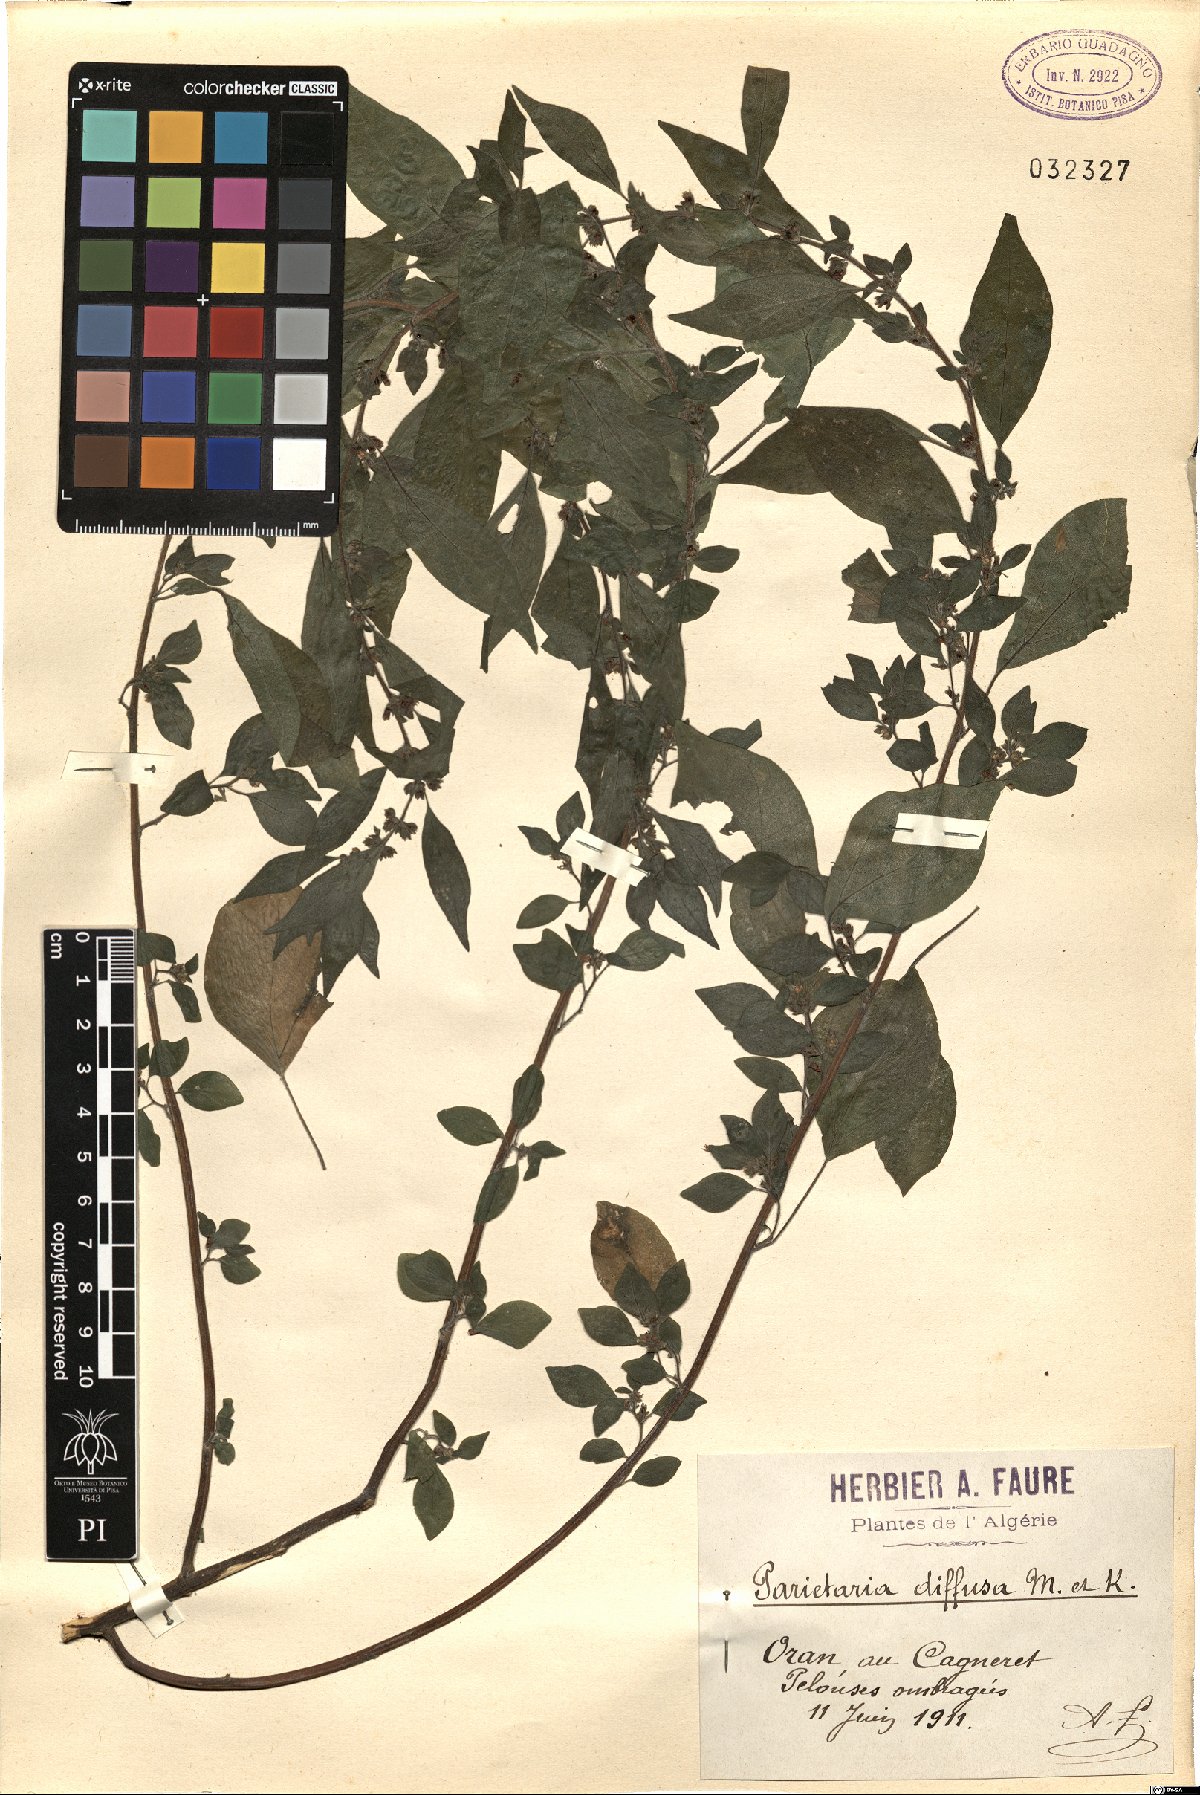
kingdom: Plantae
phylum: Tracheophyta
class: Magnoliopsida
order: Rosales
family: Urticaceae
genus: Parietaria
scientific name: Parietaria judaica
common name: Pellitory-of-the-wall
